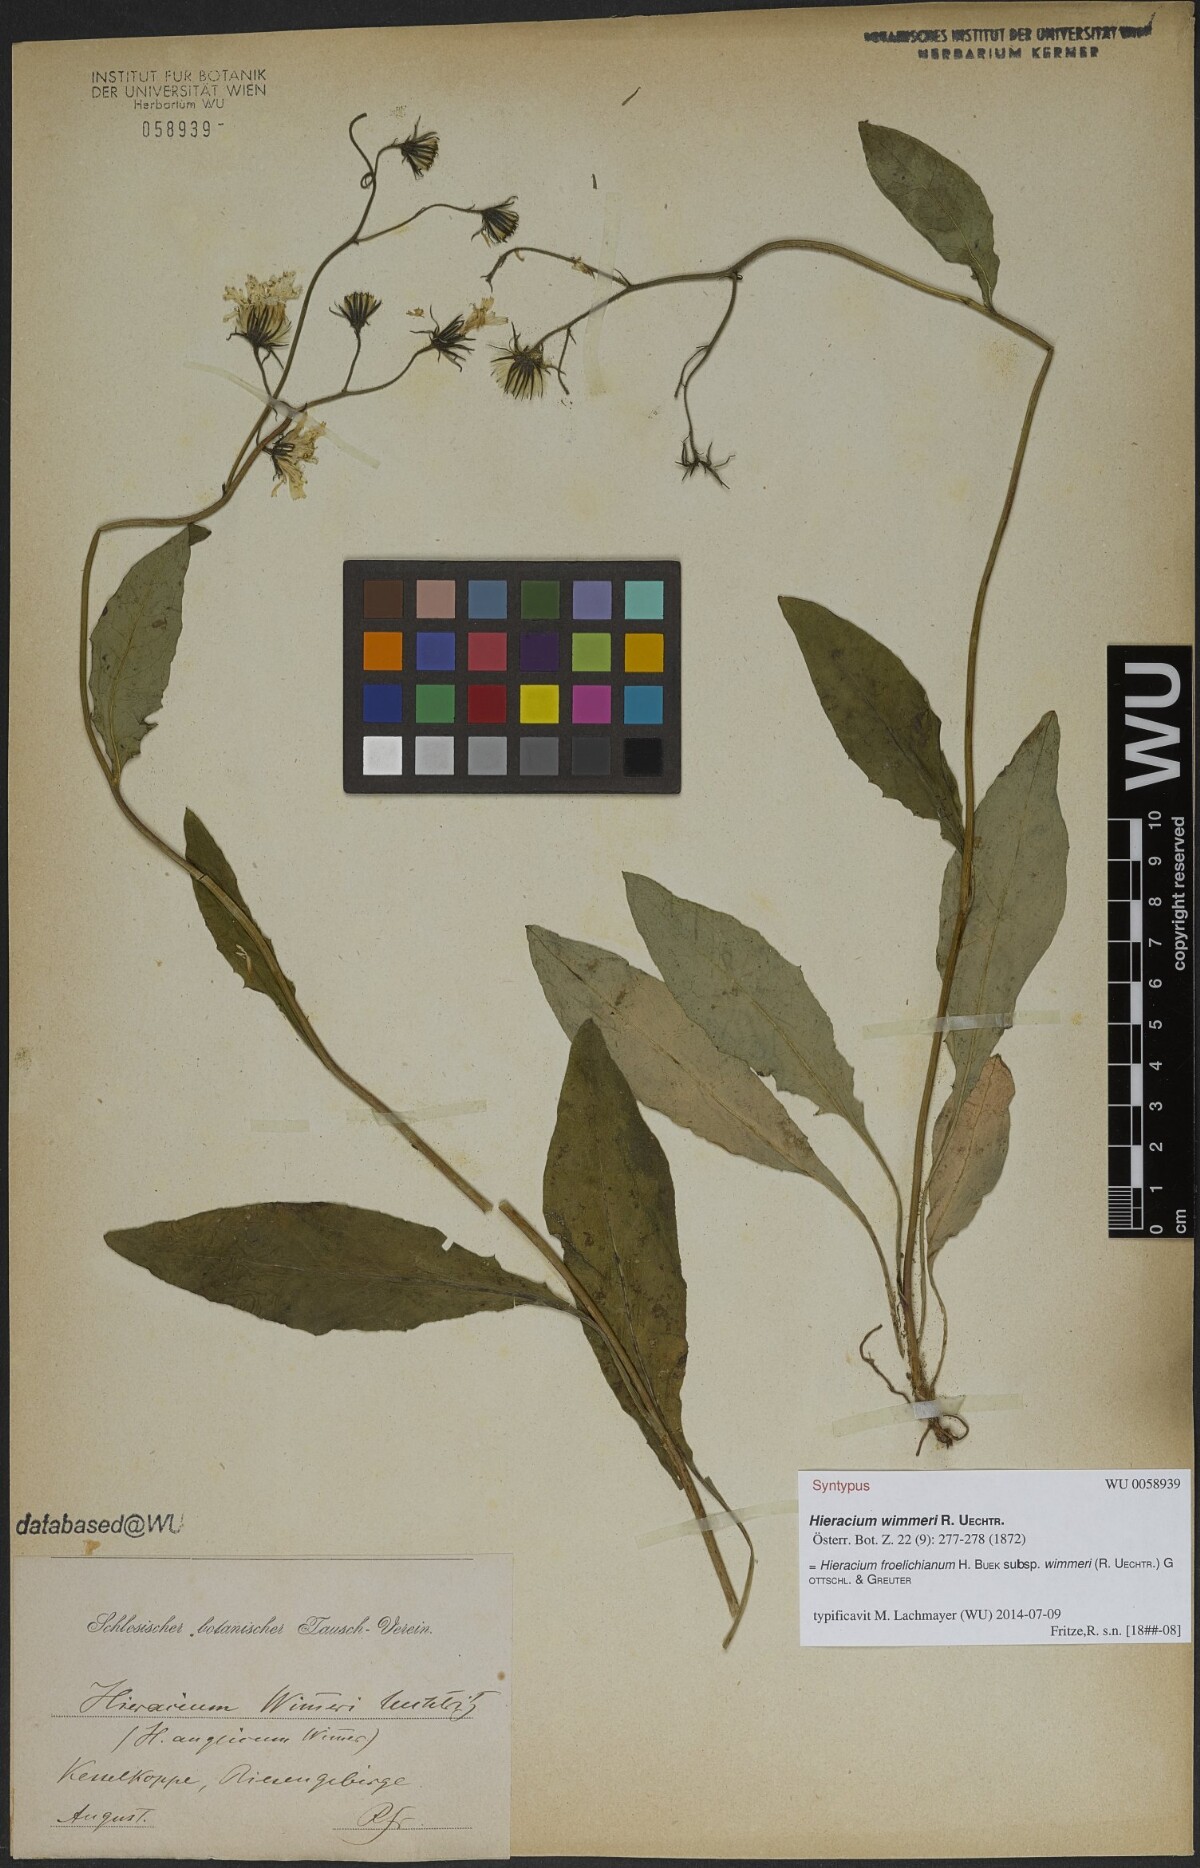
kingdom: Plantae
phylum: Tracheophyta
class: Magnoliopsida
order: Asterales
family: Asteraceae
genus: Hieracium
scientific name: Hieracium froelichianum
